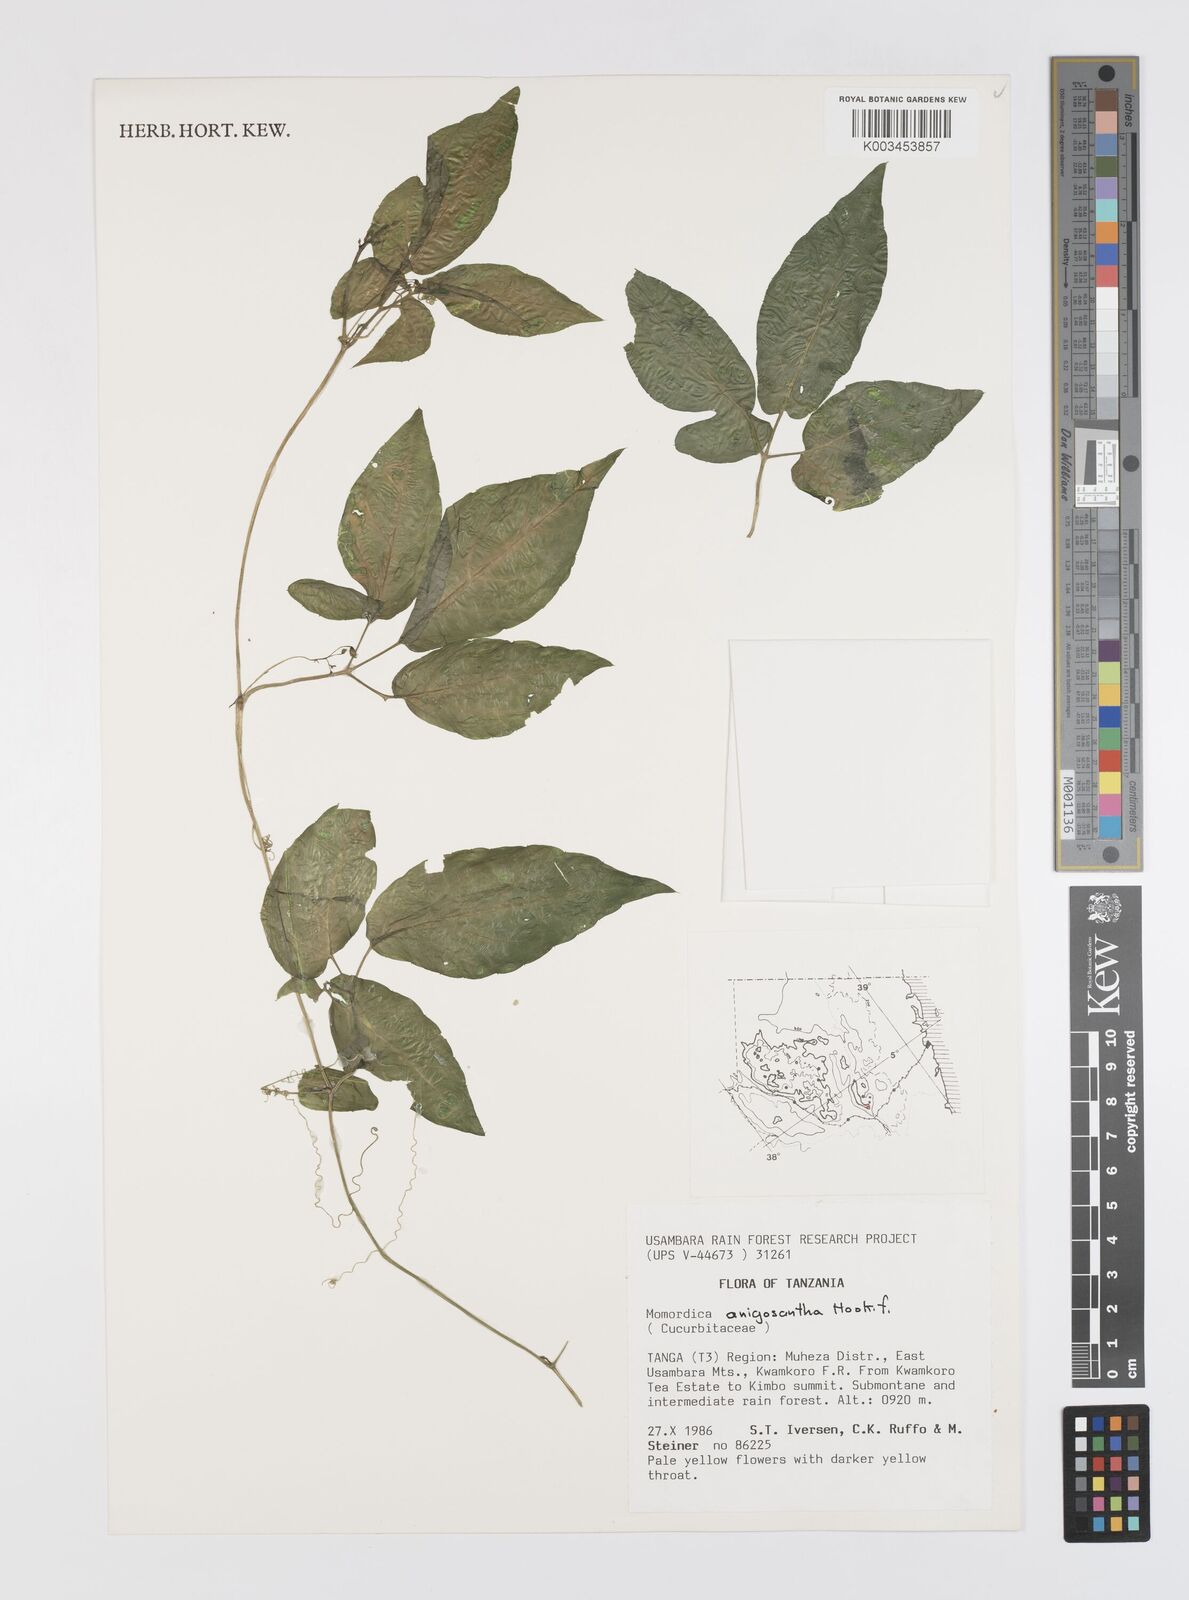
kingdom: Plantae
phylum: Tracheophyta
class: Magnoliopsida
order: Cucurbitales
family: Cucurbitaceae
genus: Momordica
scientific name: Momordica anigosantha
